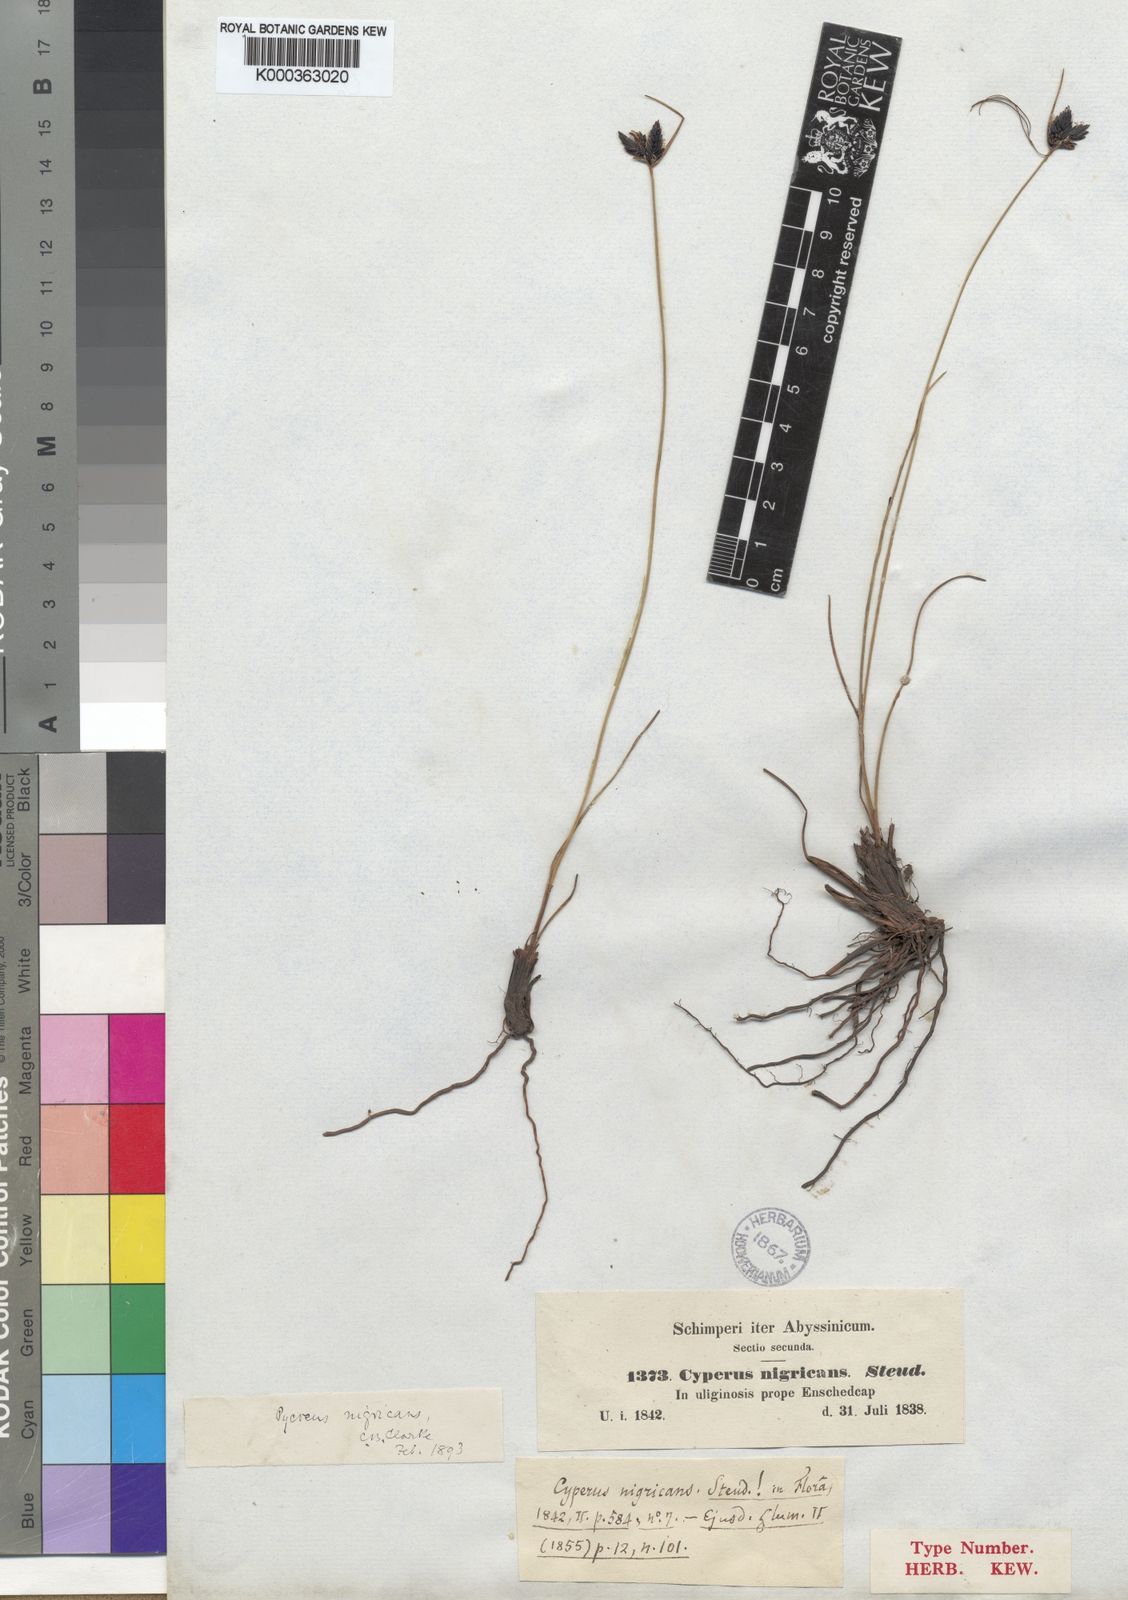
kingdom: Plantae
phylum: Tracheophyta
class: Liliopsida
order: Poales
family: Cyperaceae
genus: Cyperus
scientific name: Cyperus nigricans
